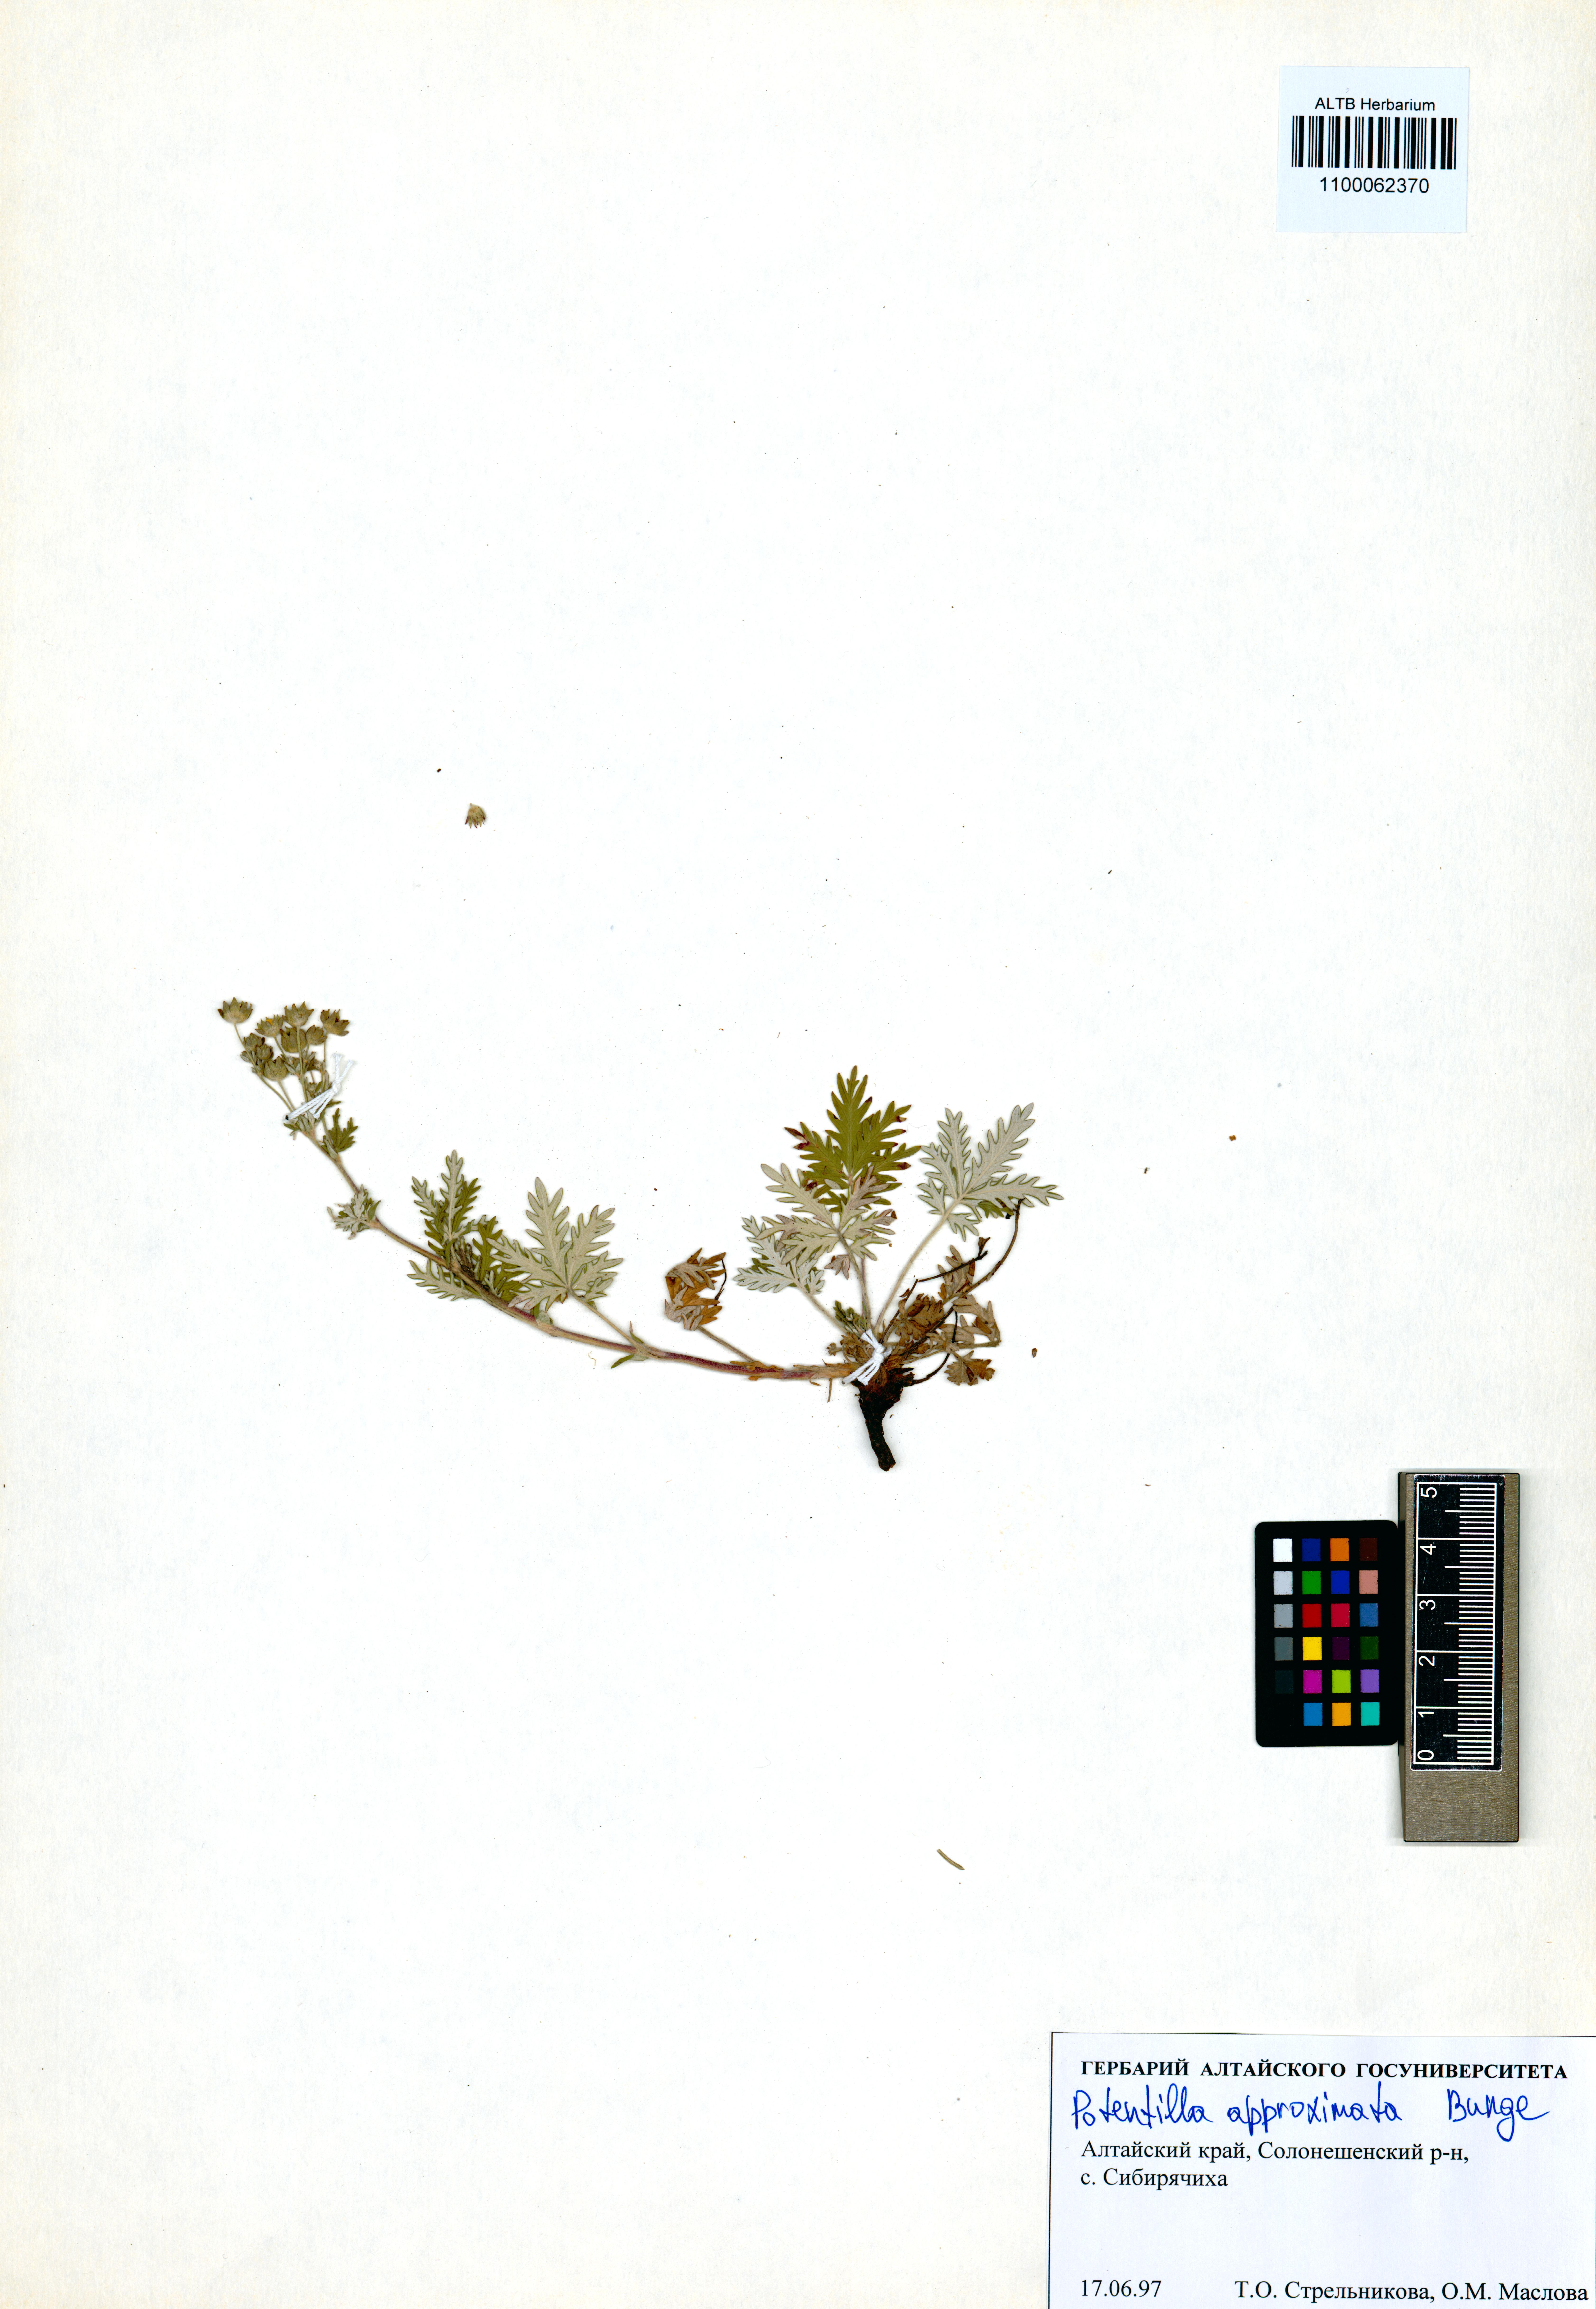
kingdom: Plantae
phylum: Tracheophyta
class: Magnoliopsida
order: Rosales
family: Rosaceae
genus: Potentilla
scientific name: Potentilla conferta
